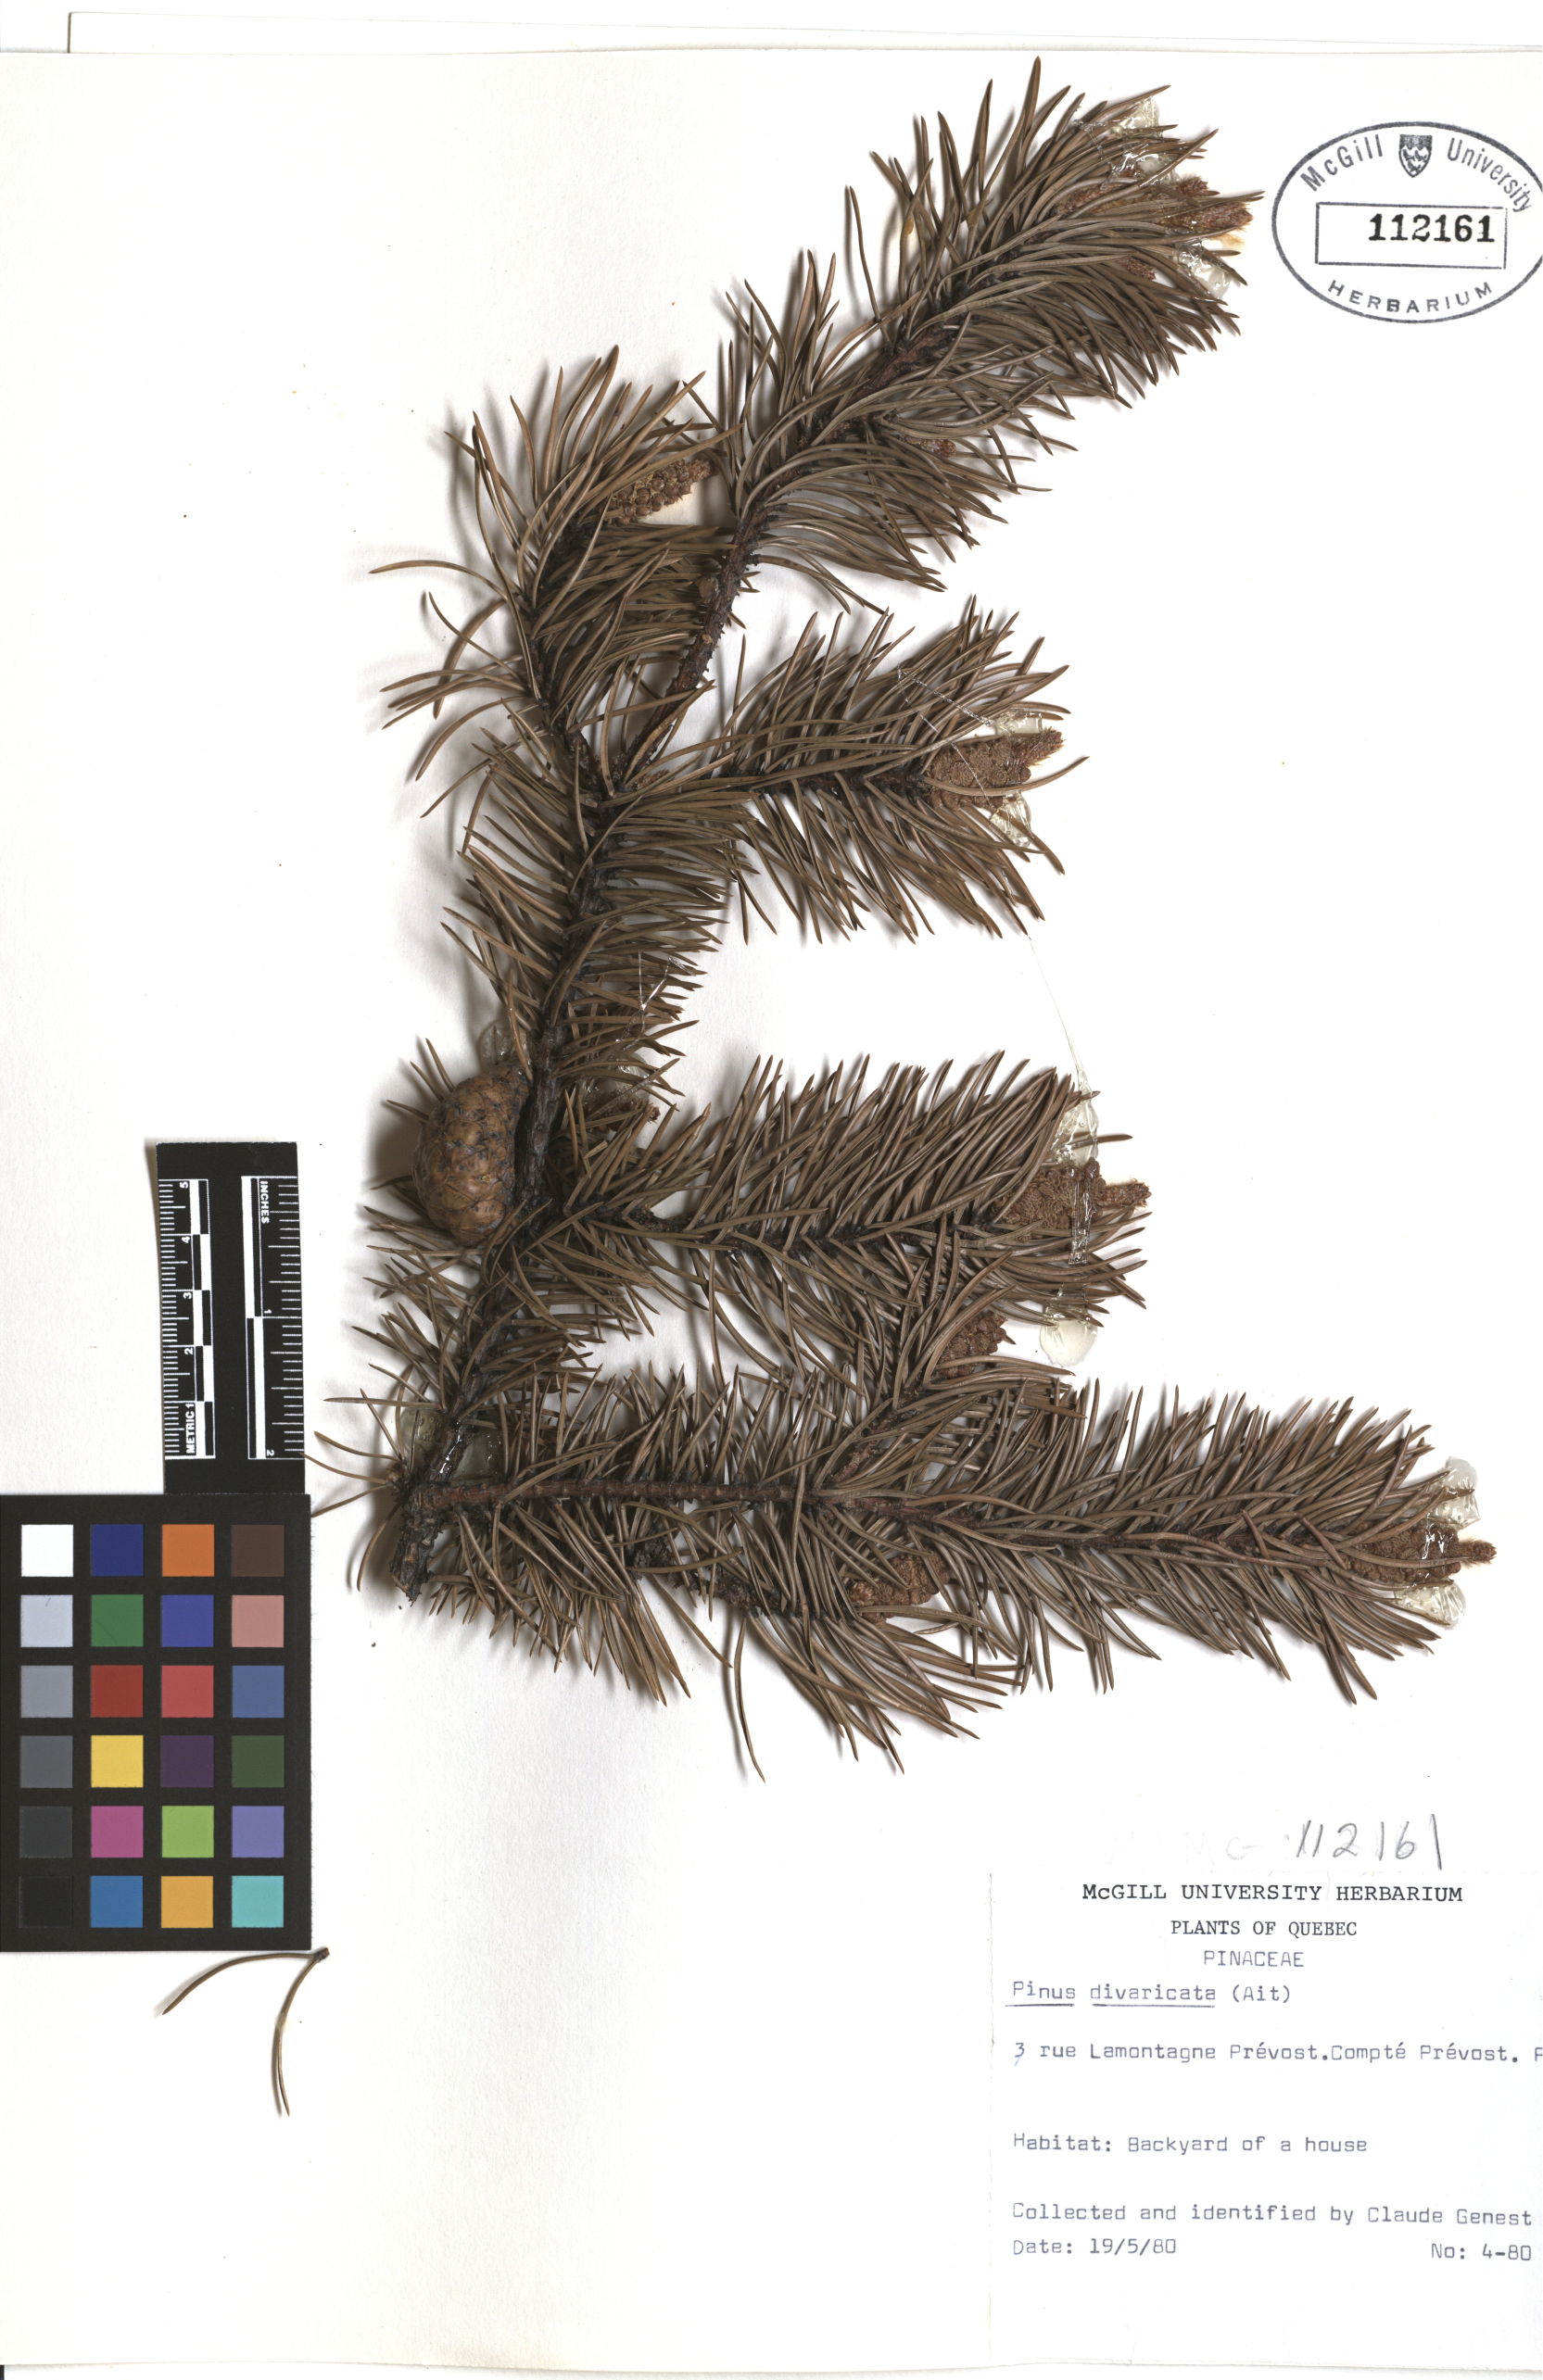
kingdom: Plantae
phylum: Tracheophyta
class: Pinopsida
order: Pinales
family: Pinaceae
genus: Pinus
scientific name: Pinus banksiana
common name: Jack pine
